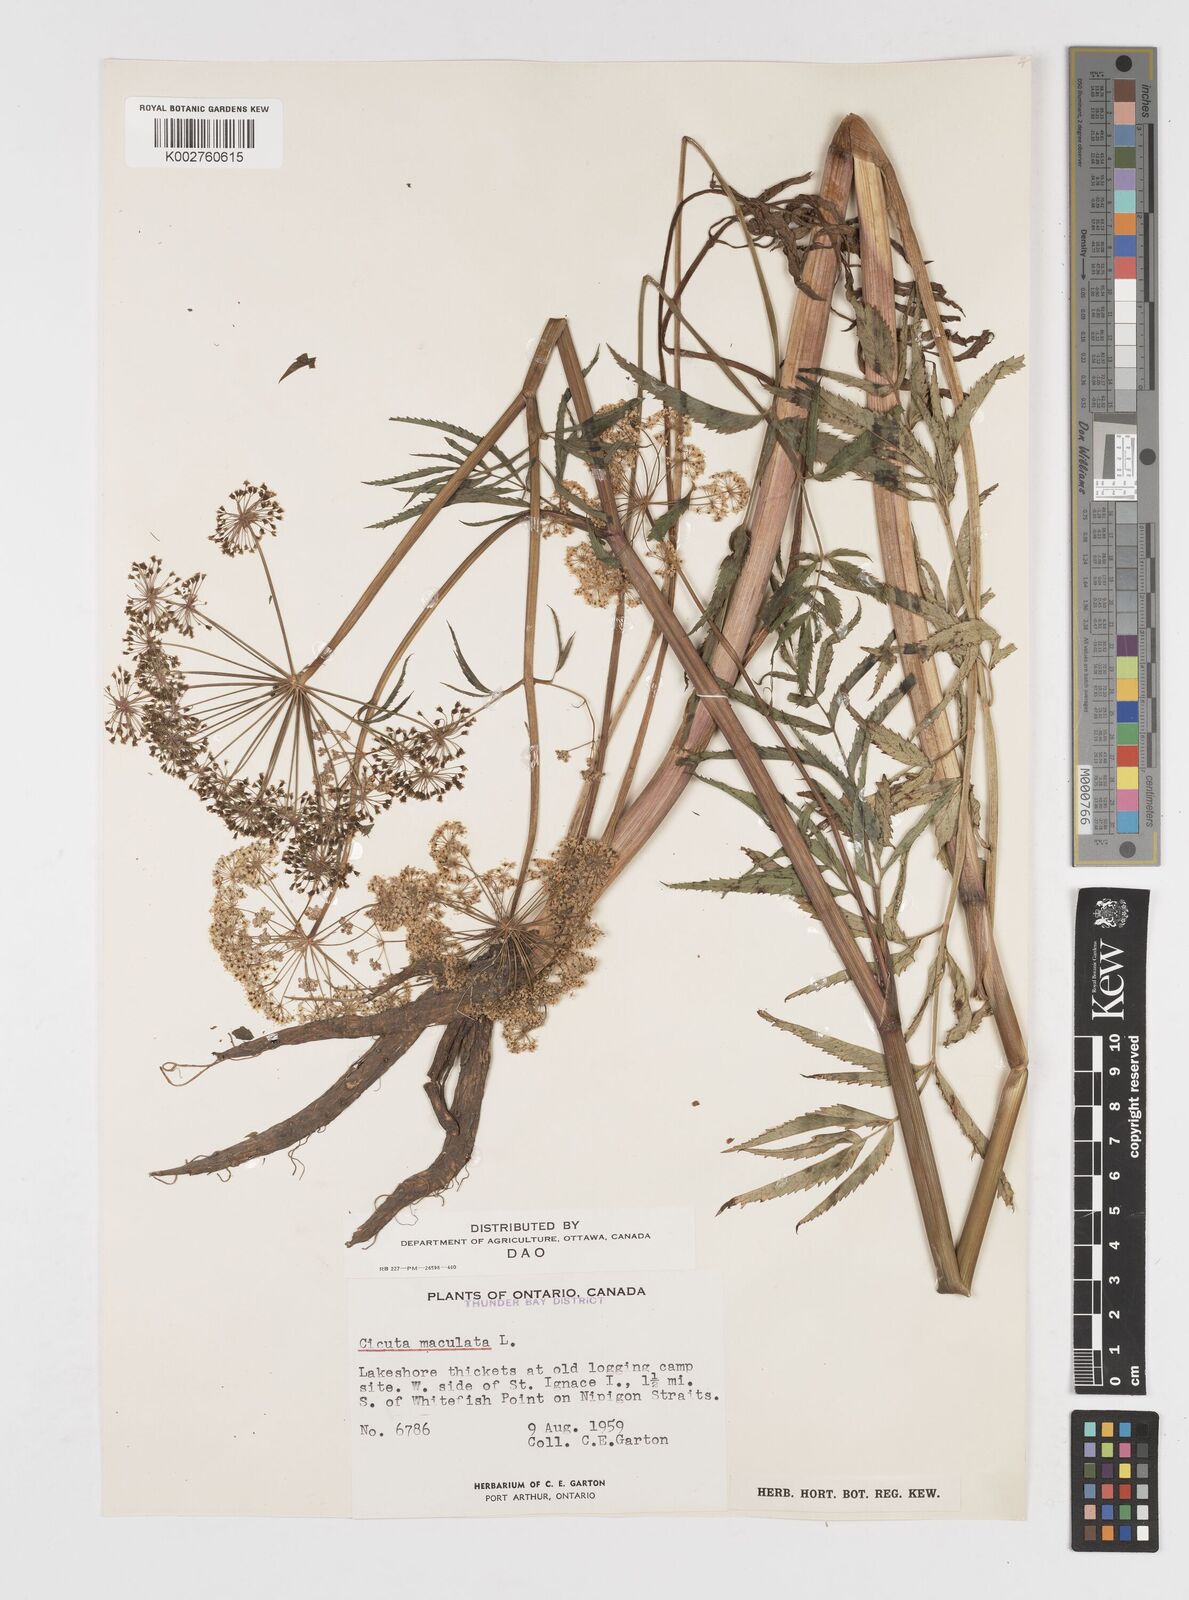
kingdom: Plantae
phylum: Tracheophyta
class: Magnoliopsida
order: Apiales
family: Apiaceae
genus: Cicuta
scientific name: Cicuta maculata
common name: Spotted cowbane
